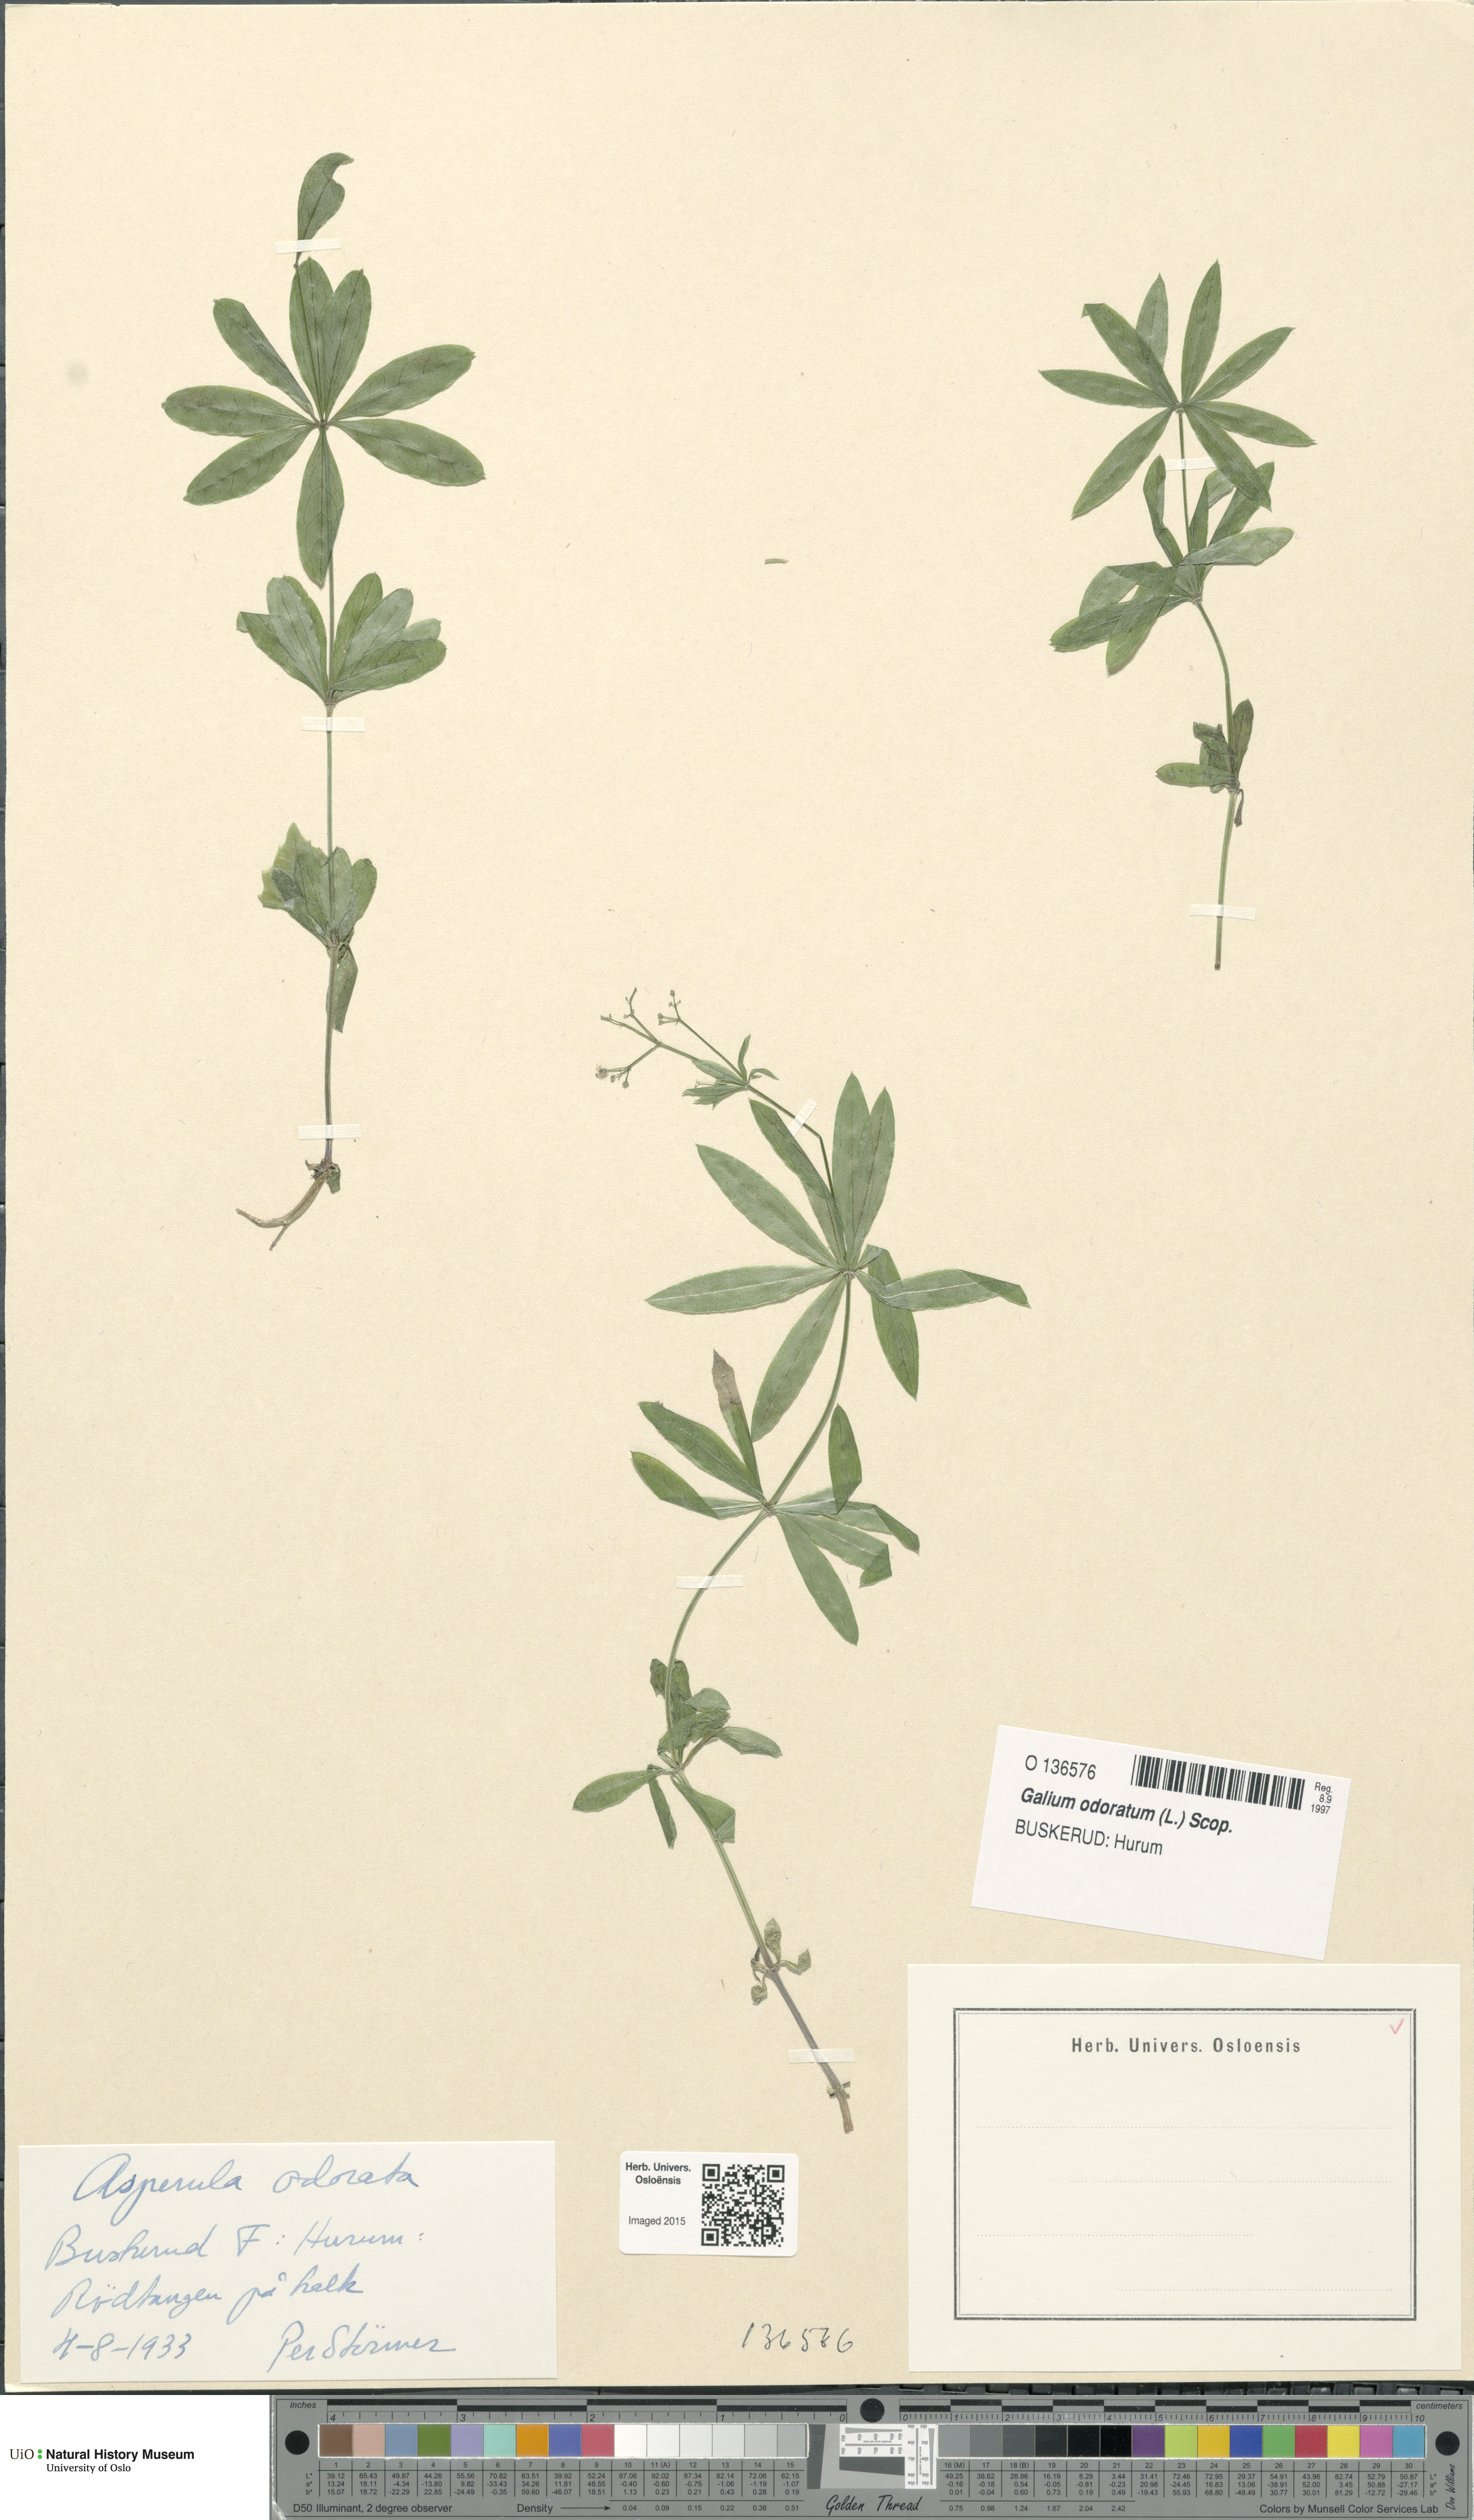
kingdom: Plantae
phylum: Tracheophyta
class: Magnoliopsida
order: Gentianales
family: Rubiaceae
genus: Galium
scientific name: Galium odoratum
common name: Sweet woodruff
